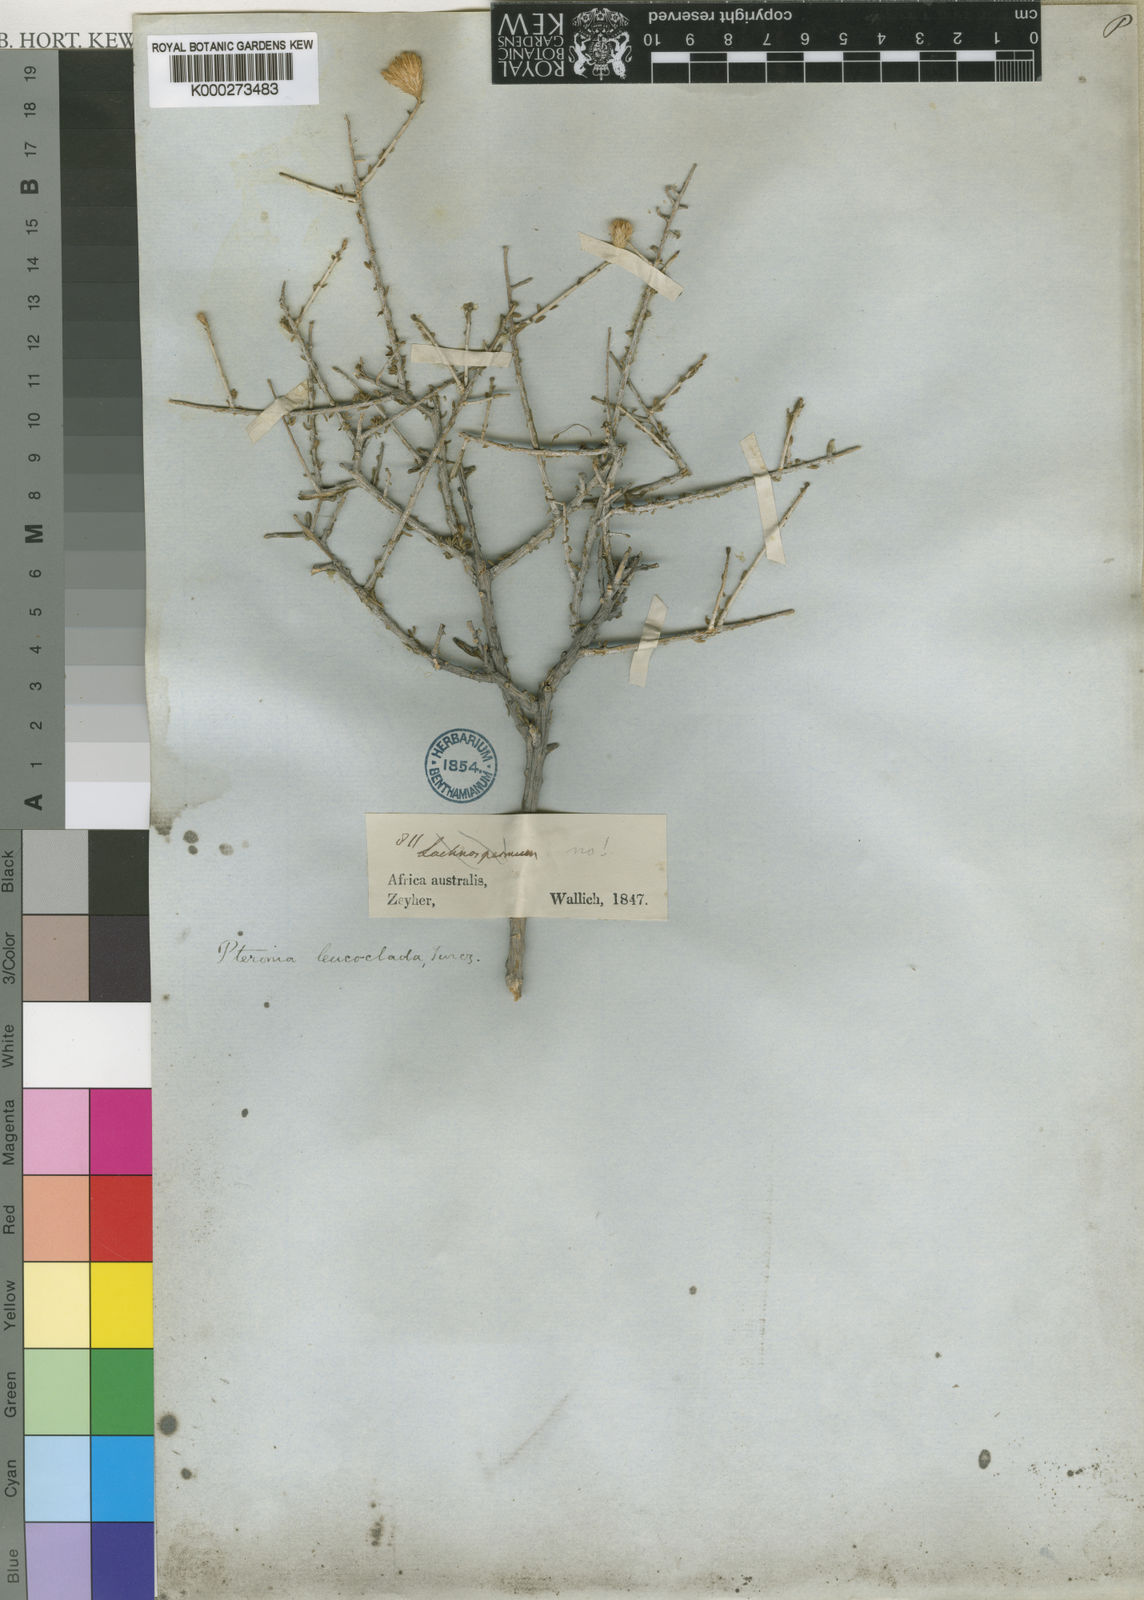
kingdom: Plantae
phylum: Tracheophyta
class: Magnoliopsida
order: Asterales
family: Asteraceae
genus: Pteronia
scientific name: Pteronia leucoclada
